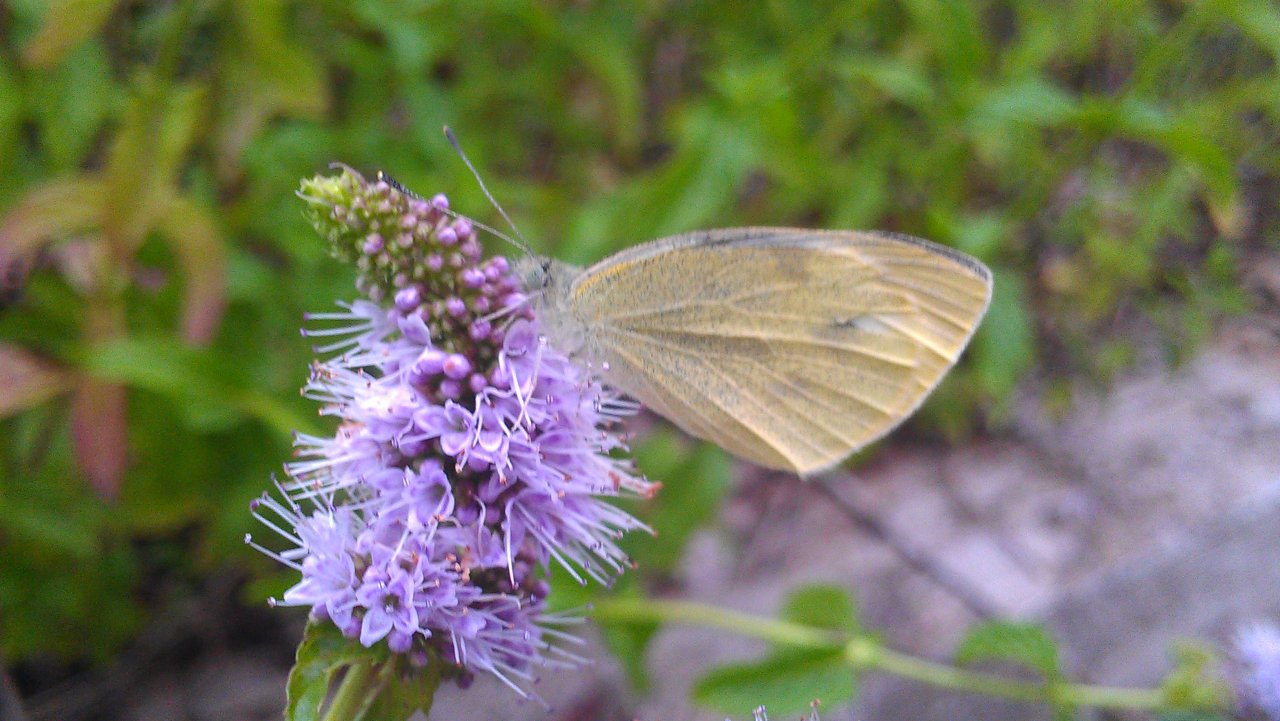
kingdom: Animalia
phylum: Arthropoda
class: Insecta
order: Lepidoptera
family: Pieridae
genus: Pieris
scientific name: Pieris rapae
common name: Cabbage White
